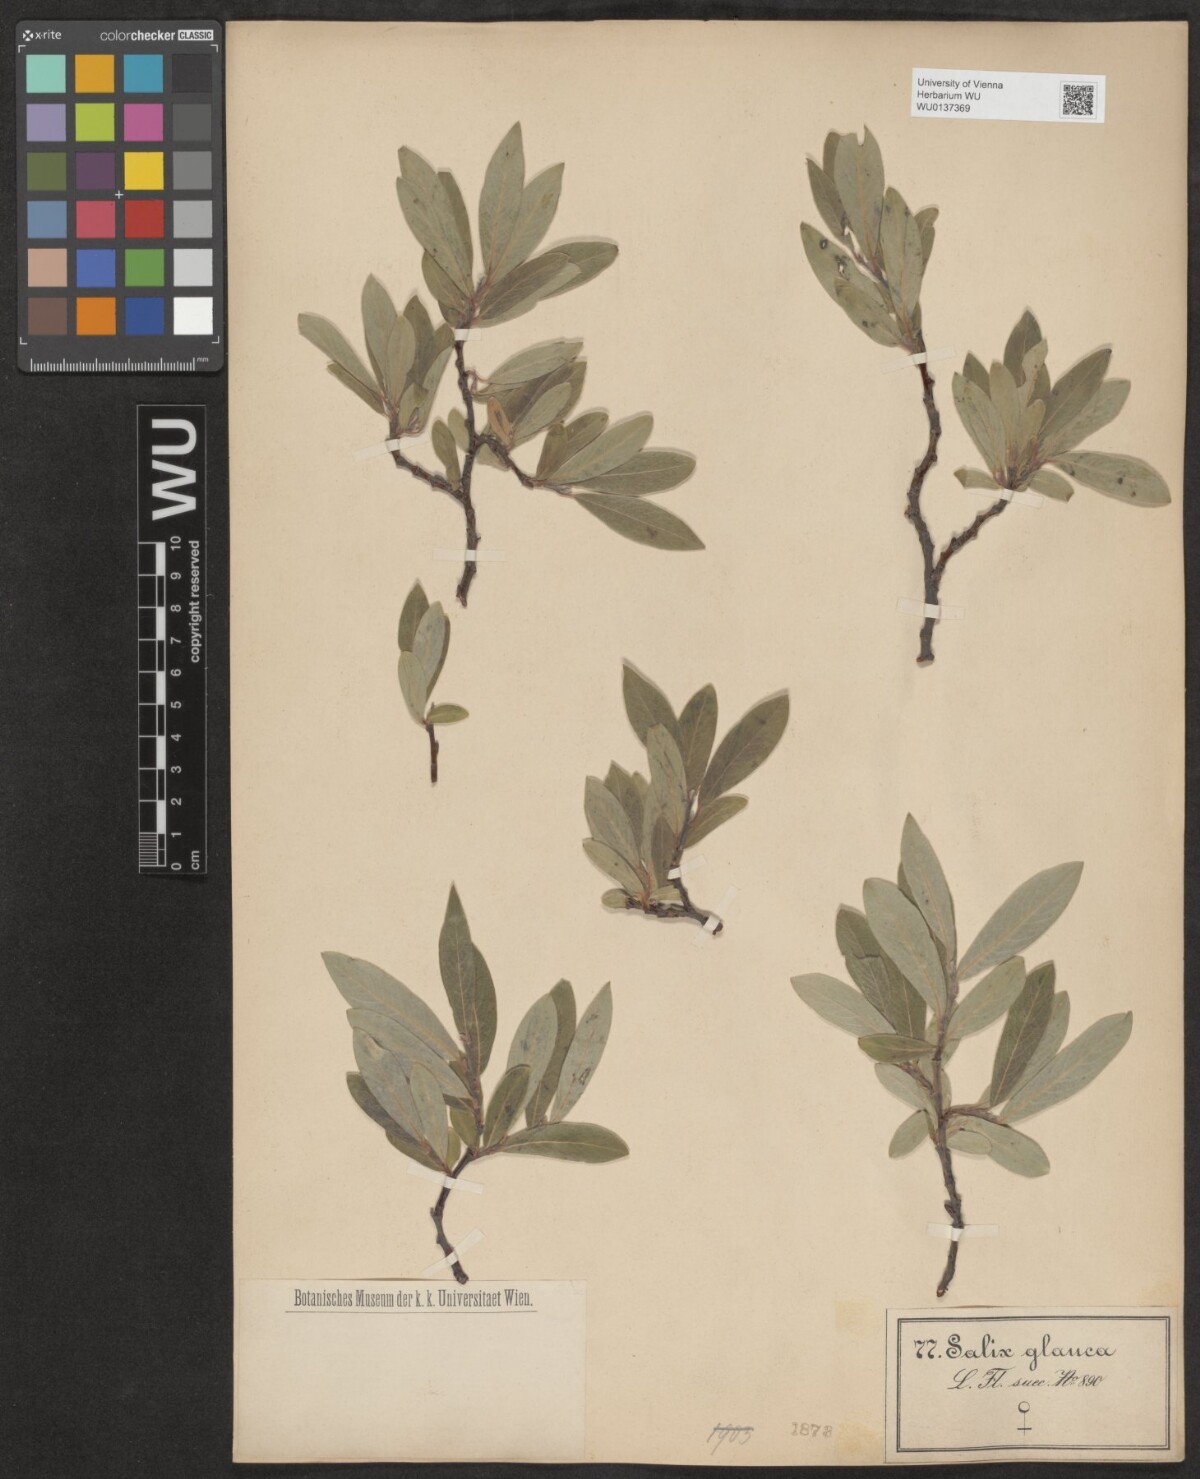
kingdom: Plantae
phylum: Tracheophyta
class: Magnoliopsida
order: Malpighiales
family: Salicaceae
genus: Salix
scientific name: Salix glauca
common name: Glaucous willow
